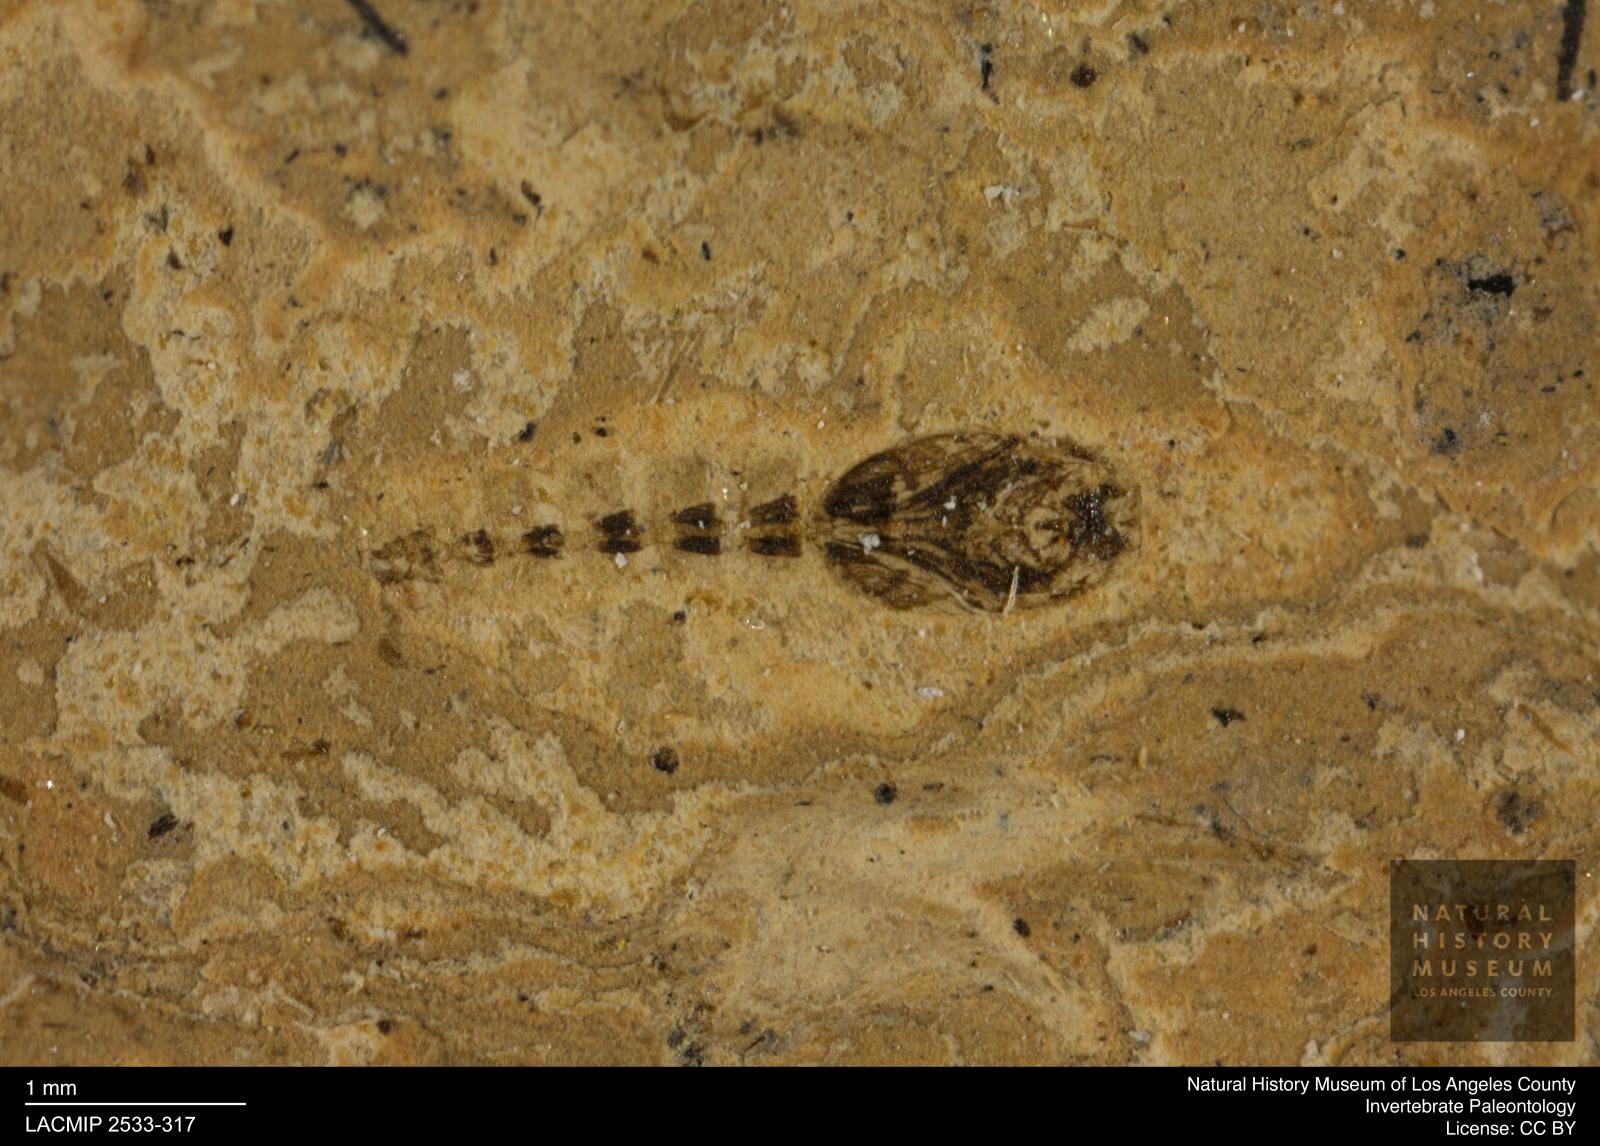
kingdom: Animalia
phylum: Arthropoda
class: Insecta
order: Diptera
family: Ceratopogonidae
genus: Ceratopogon
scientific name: Ceratopogon
